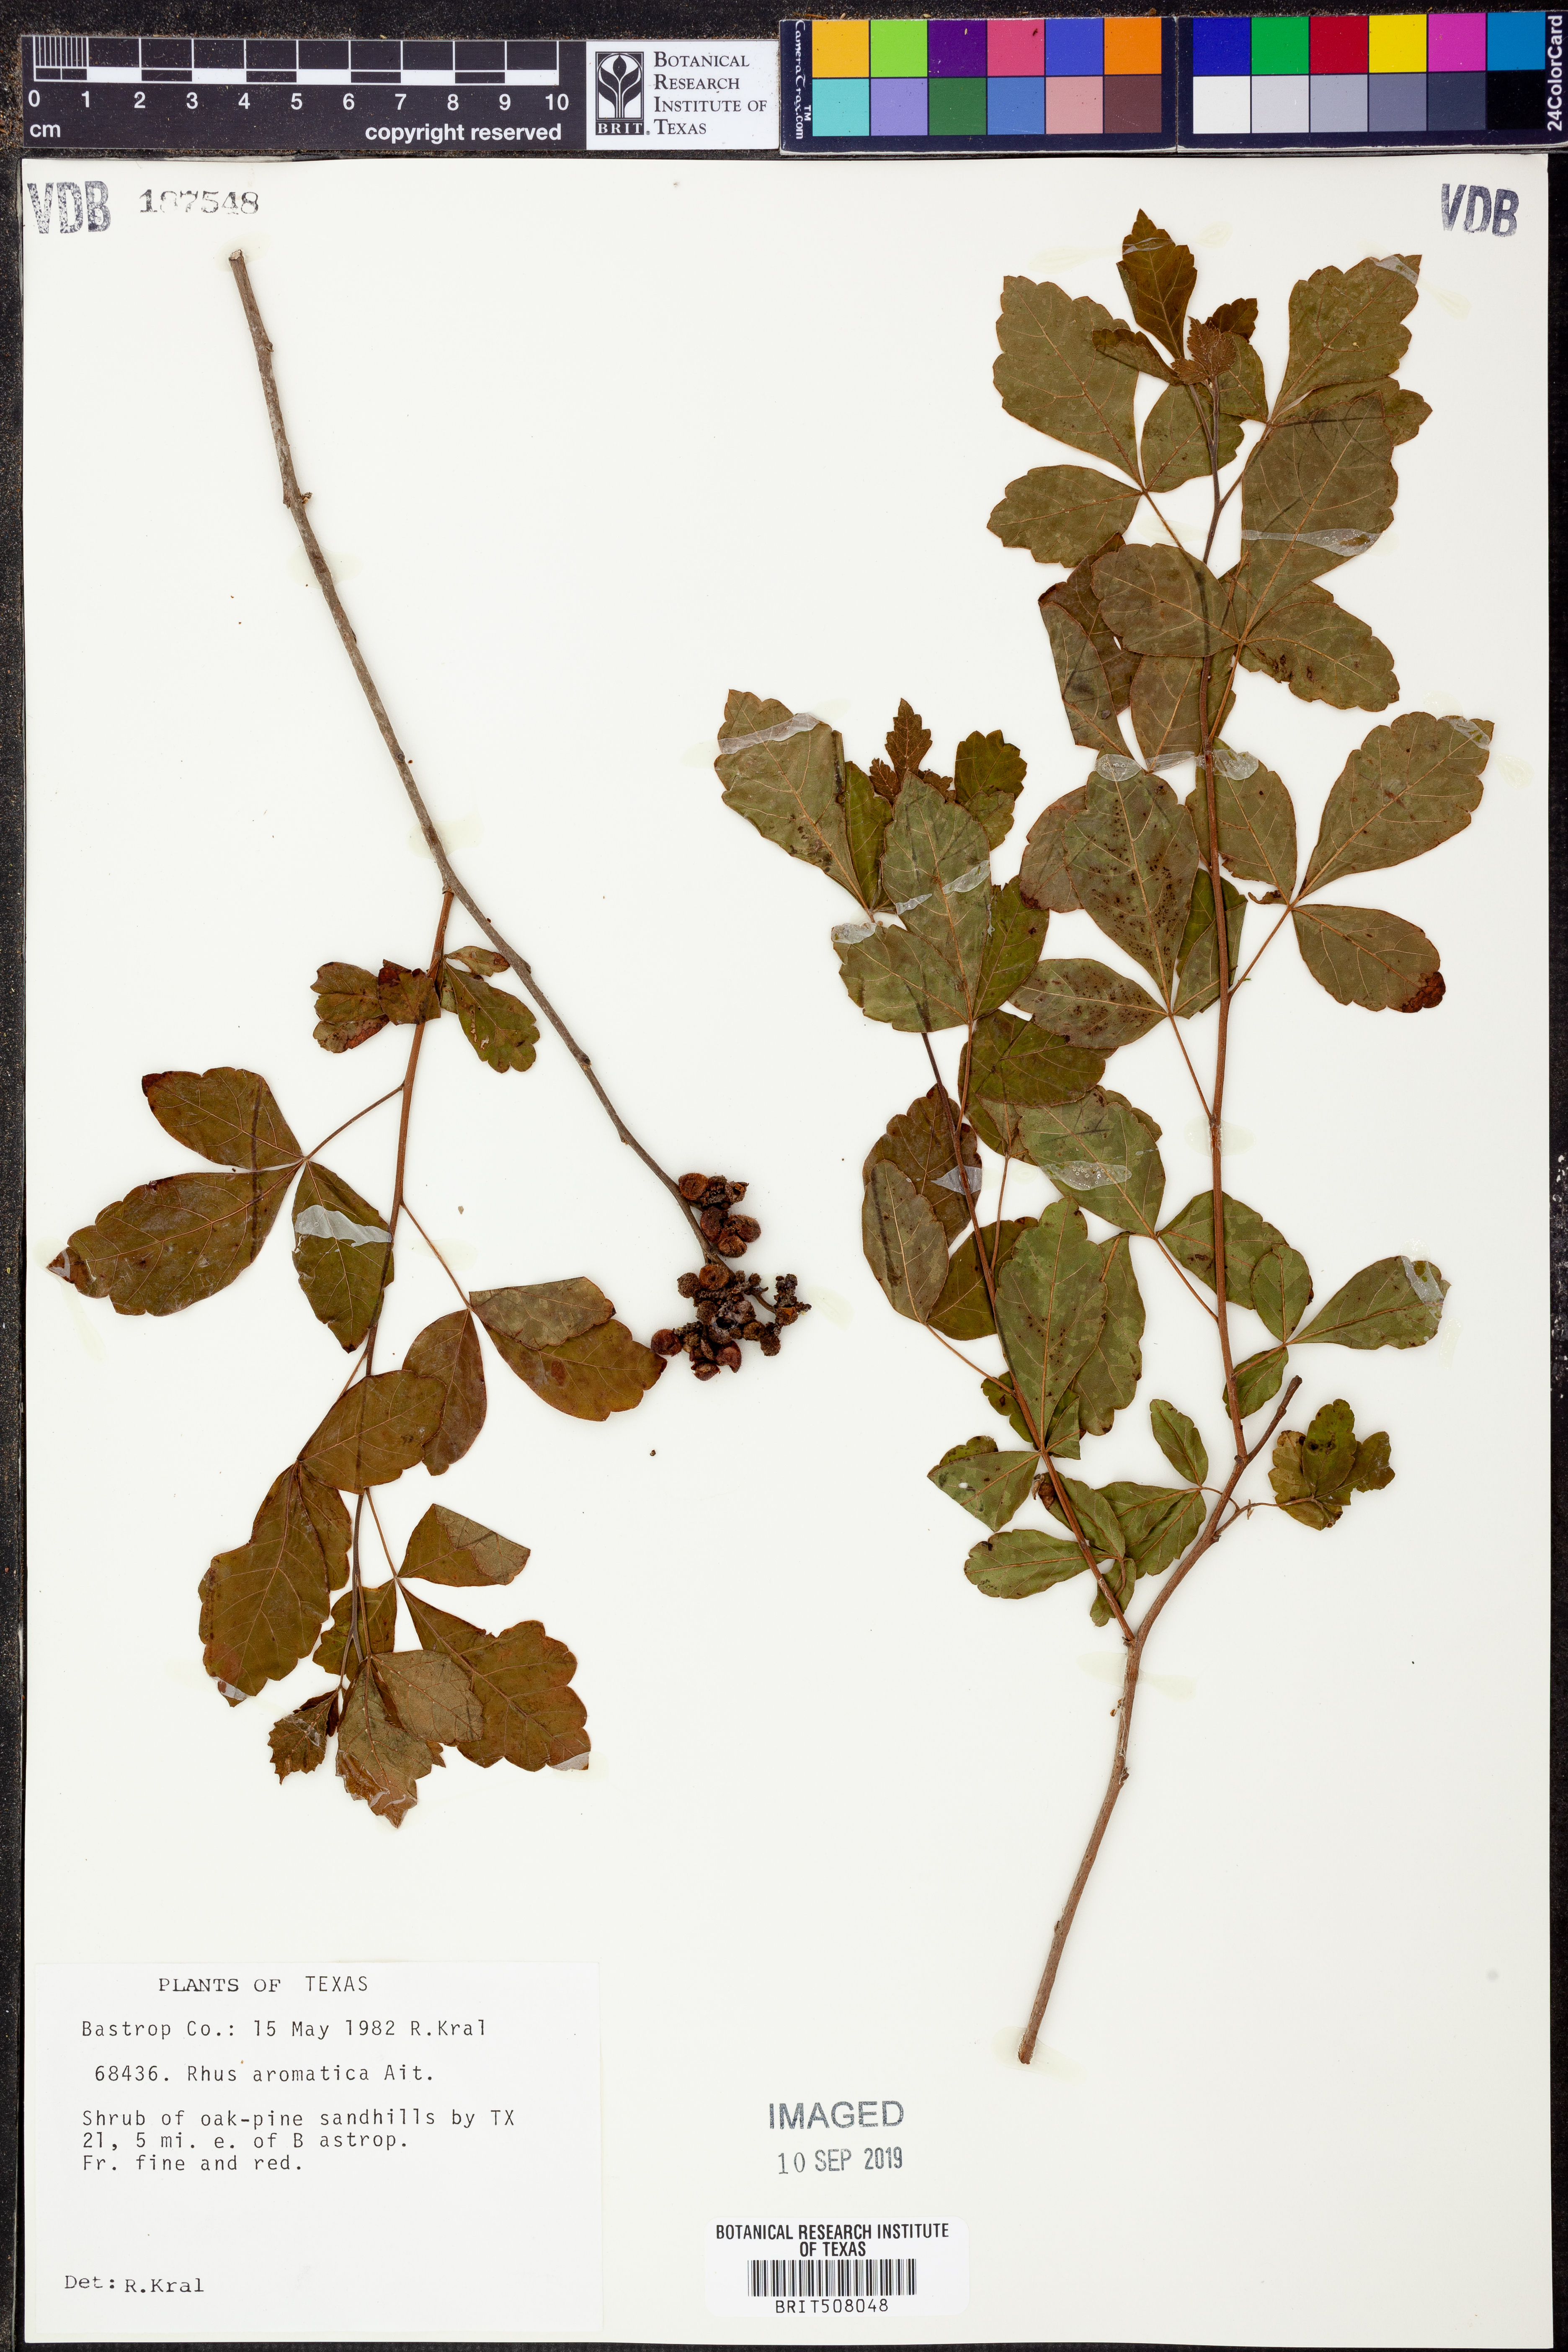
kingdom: Plantae
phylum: Tracheophyta
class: Magnoliopsida
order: Sapindales
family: Anacardiaceae
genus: Rhus
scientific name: Rhus aromatica
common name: Aromatic sumac
